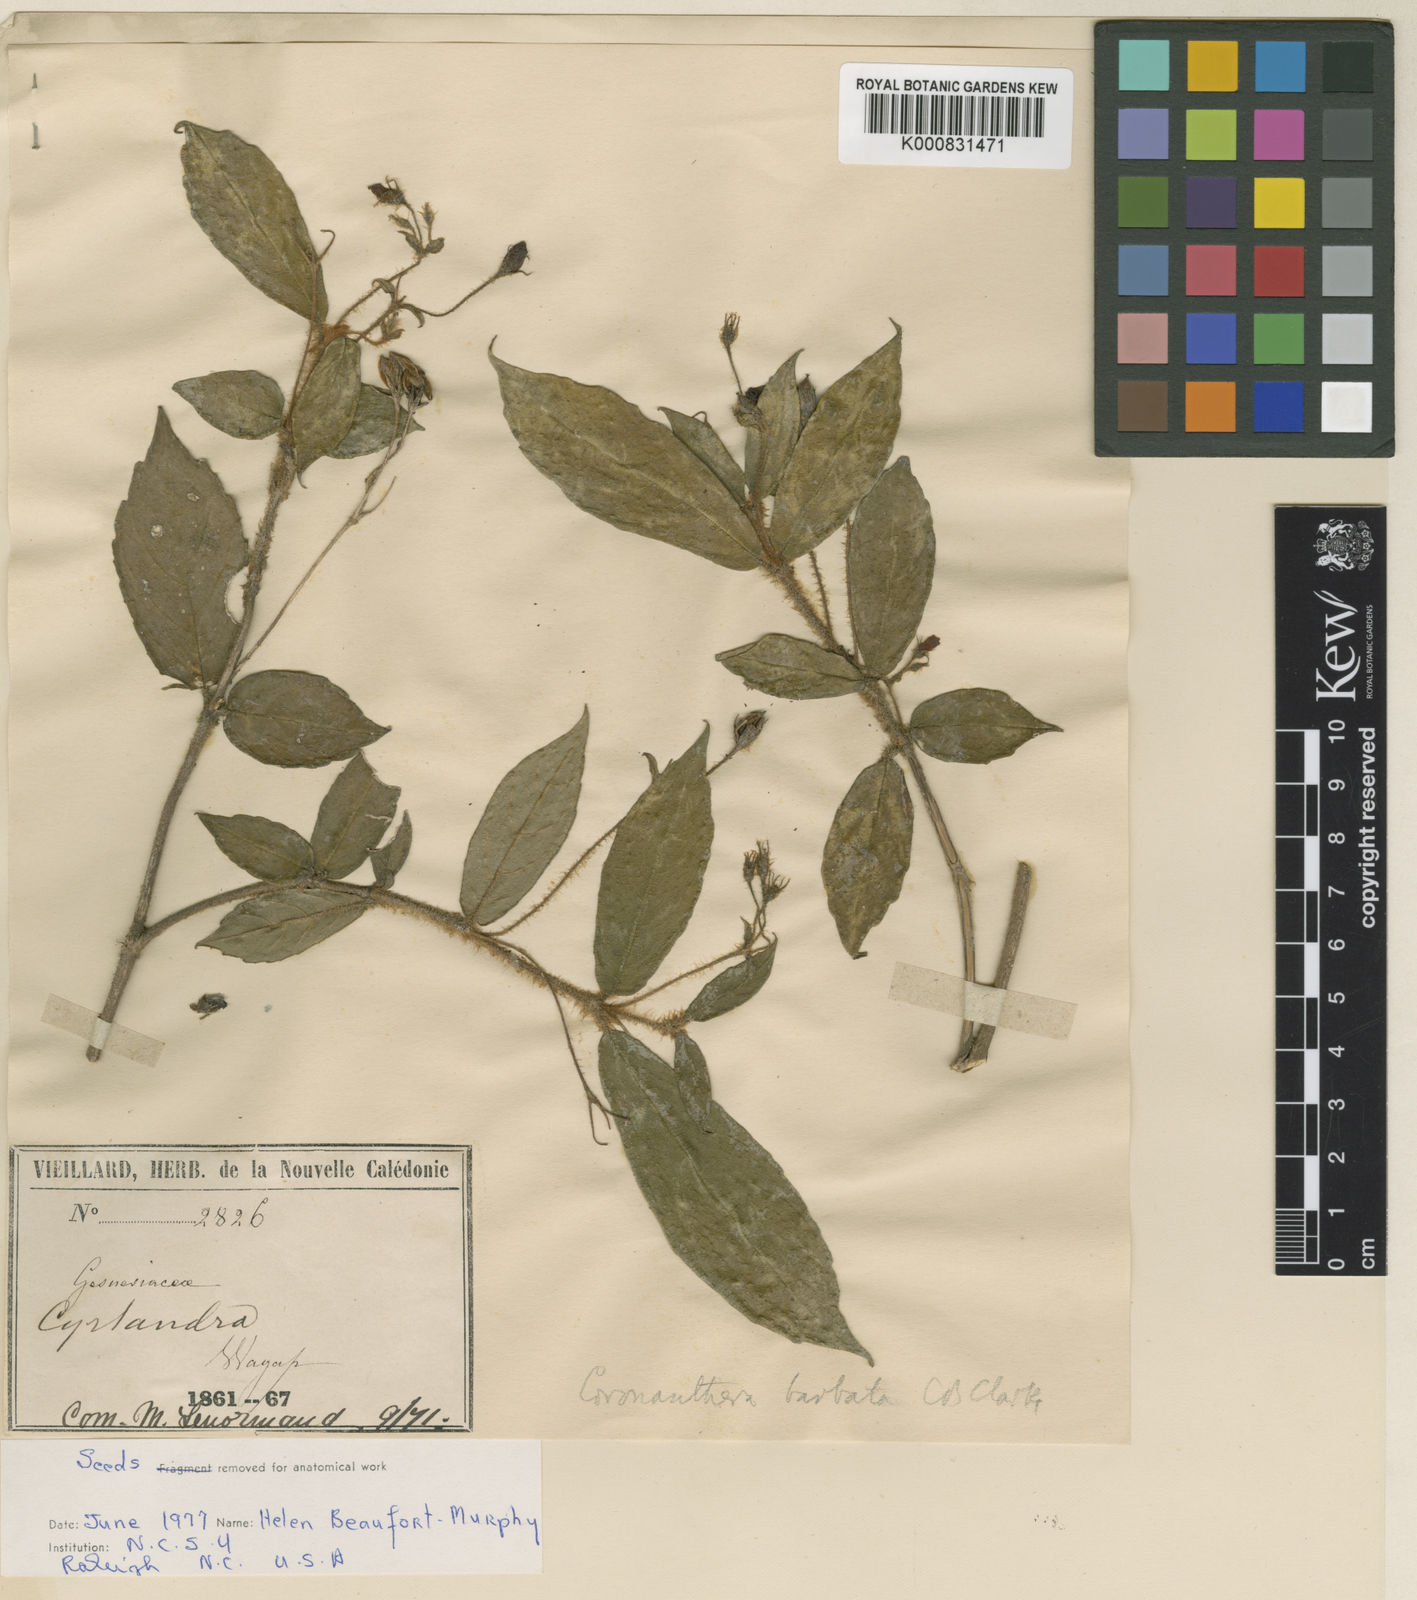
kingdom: Plantae
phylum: Tracheophyta
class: Magnoliopsida
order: Lamiales
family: Gesneriaceae
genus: Coronanthera
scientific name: Coronanthera barbata
